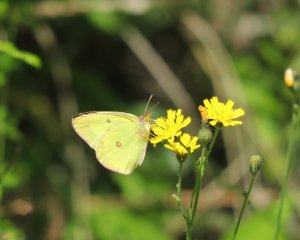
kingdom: Animalia
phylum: Arthropoda
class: Insecta
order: Lepidoptera
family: Pieridae
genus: Colias
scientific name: Colias interior
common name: Pink-edged Sulphur
